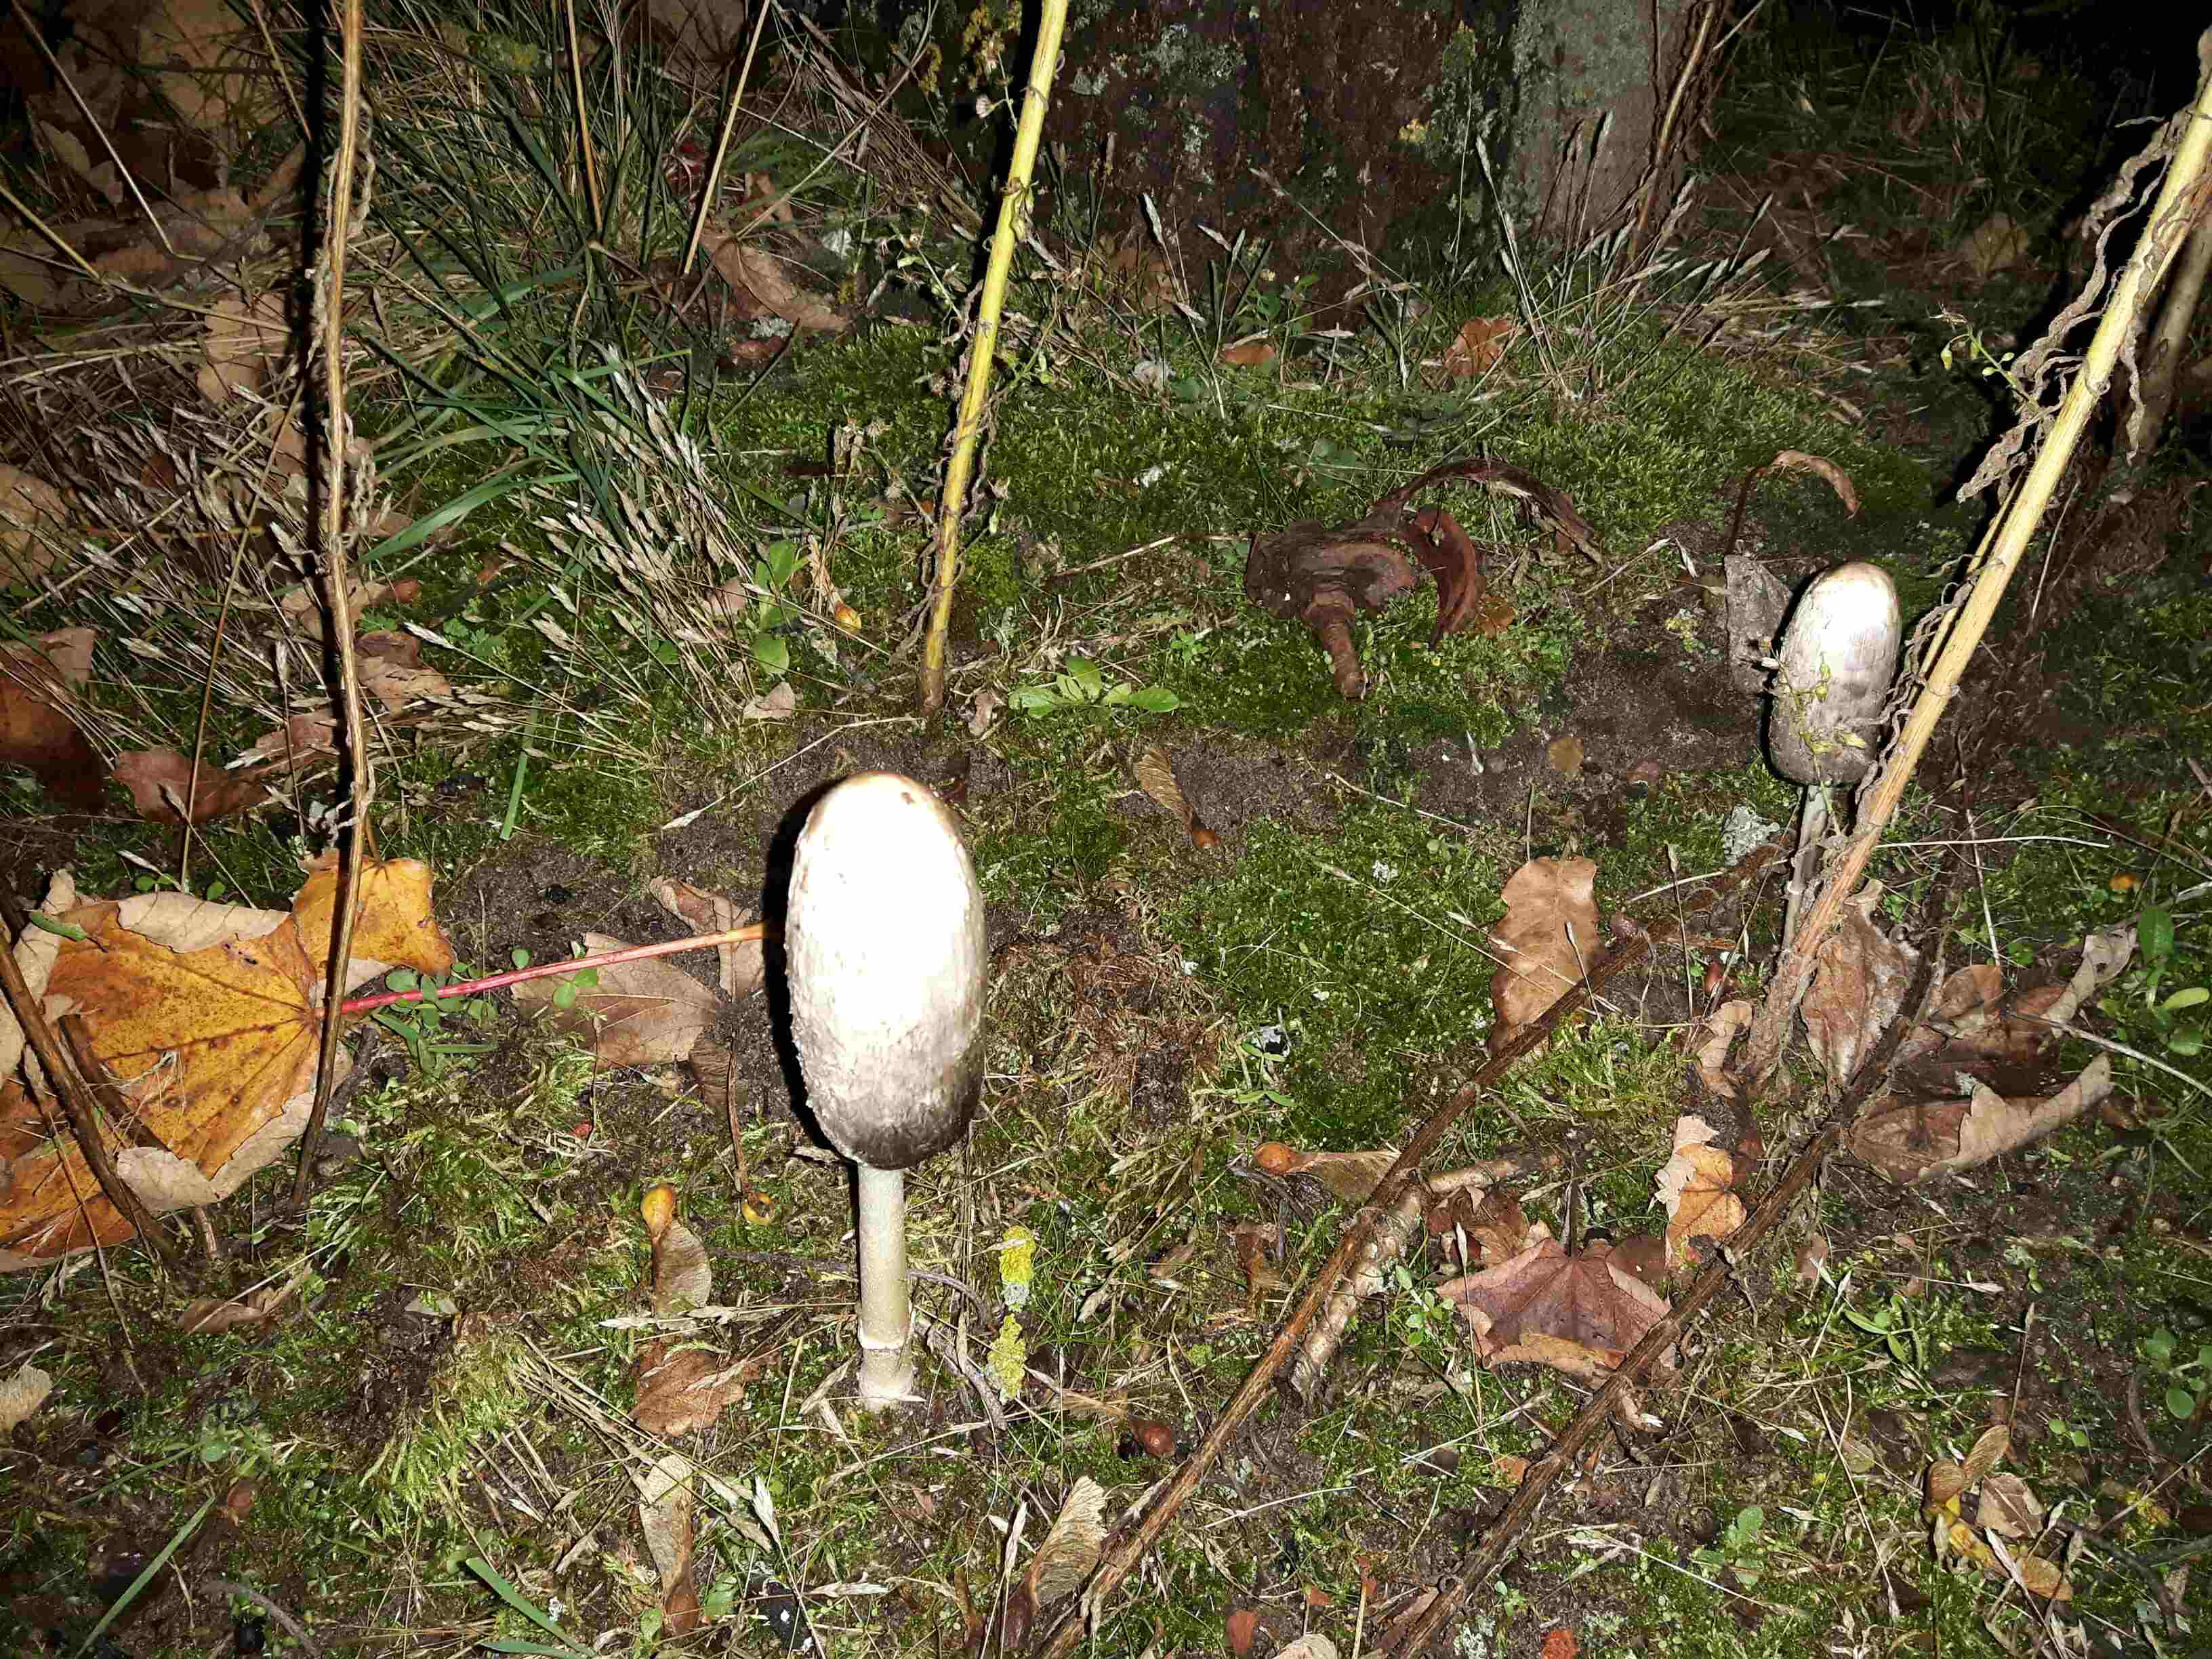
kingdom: Fungi
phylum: Basidiomycota
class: Agaricomycetes
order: Agaricales
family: Agaricaceae
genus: Coprinus
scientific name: Coprinus comatus
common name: stor parykhat
